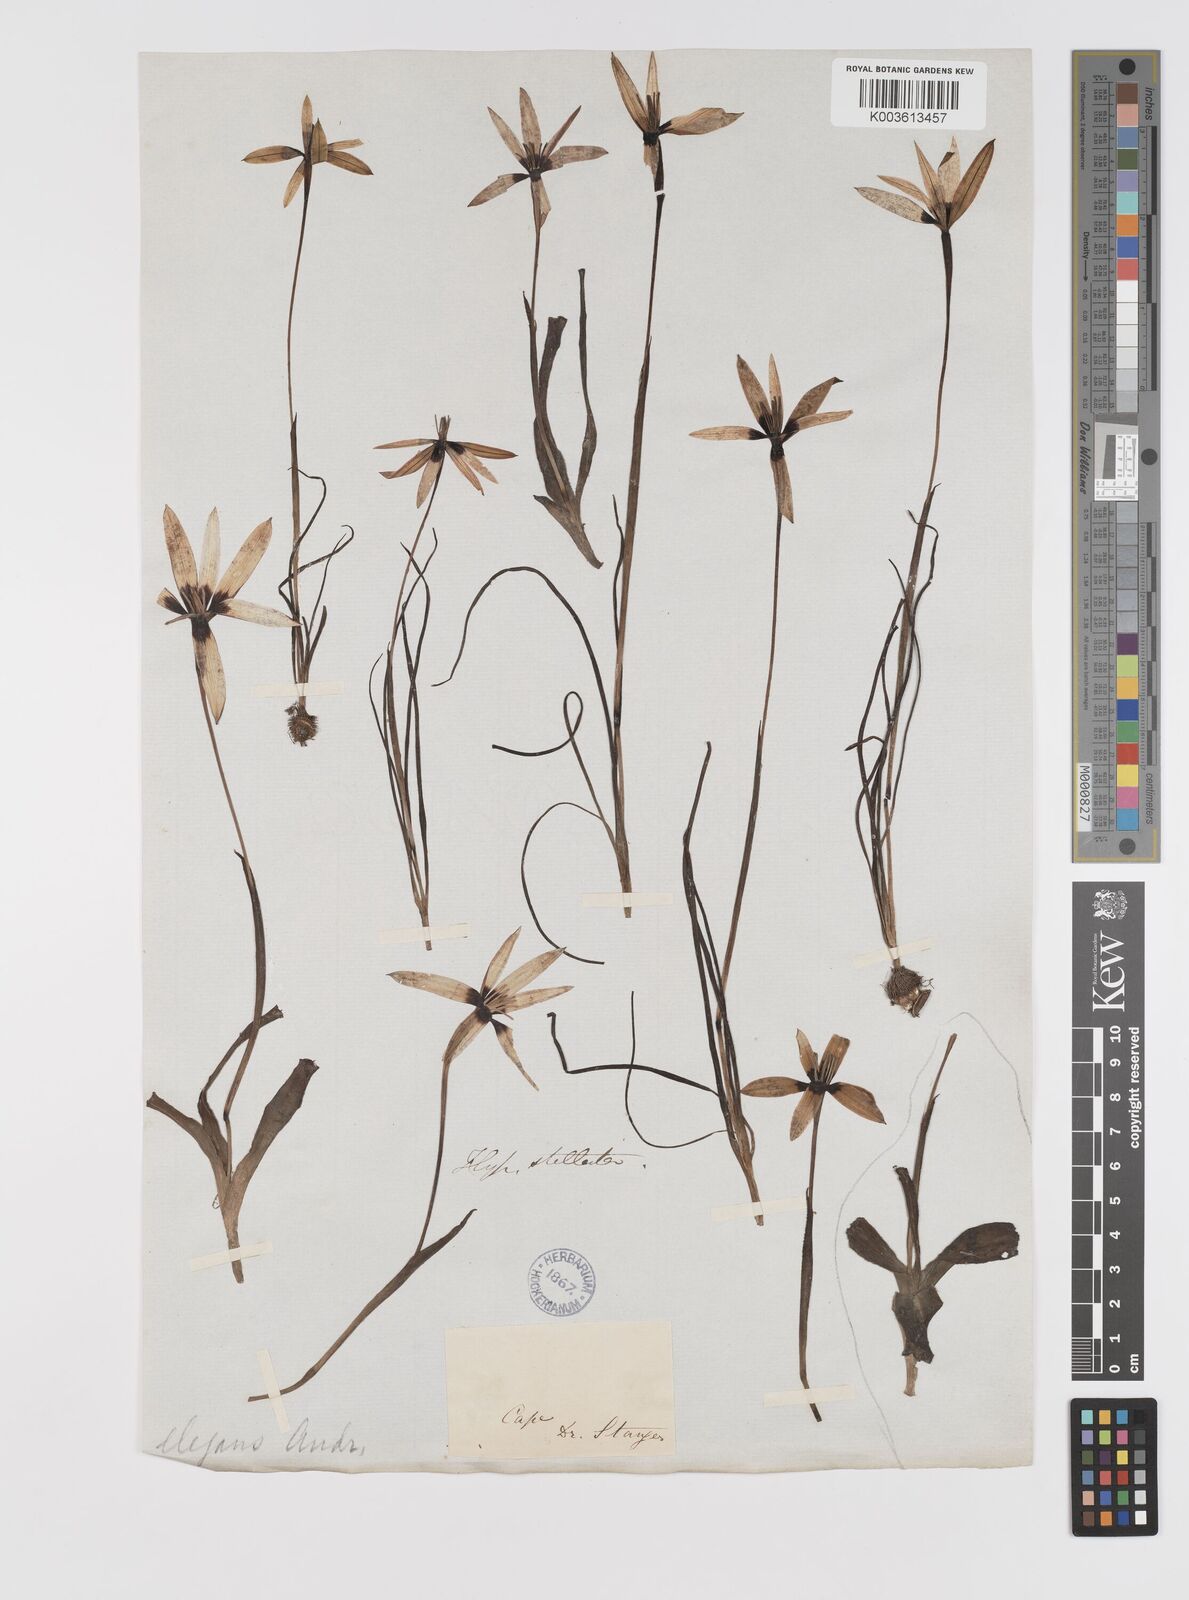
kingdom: Plantae
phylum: Tracheophyta
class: Liliopsida
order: Asparagales
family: Hypoxidaceae
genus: Pauridia
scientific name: Pauridia capensis
